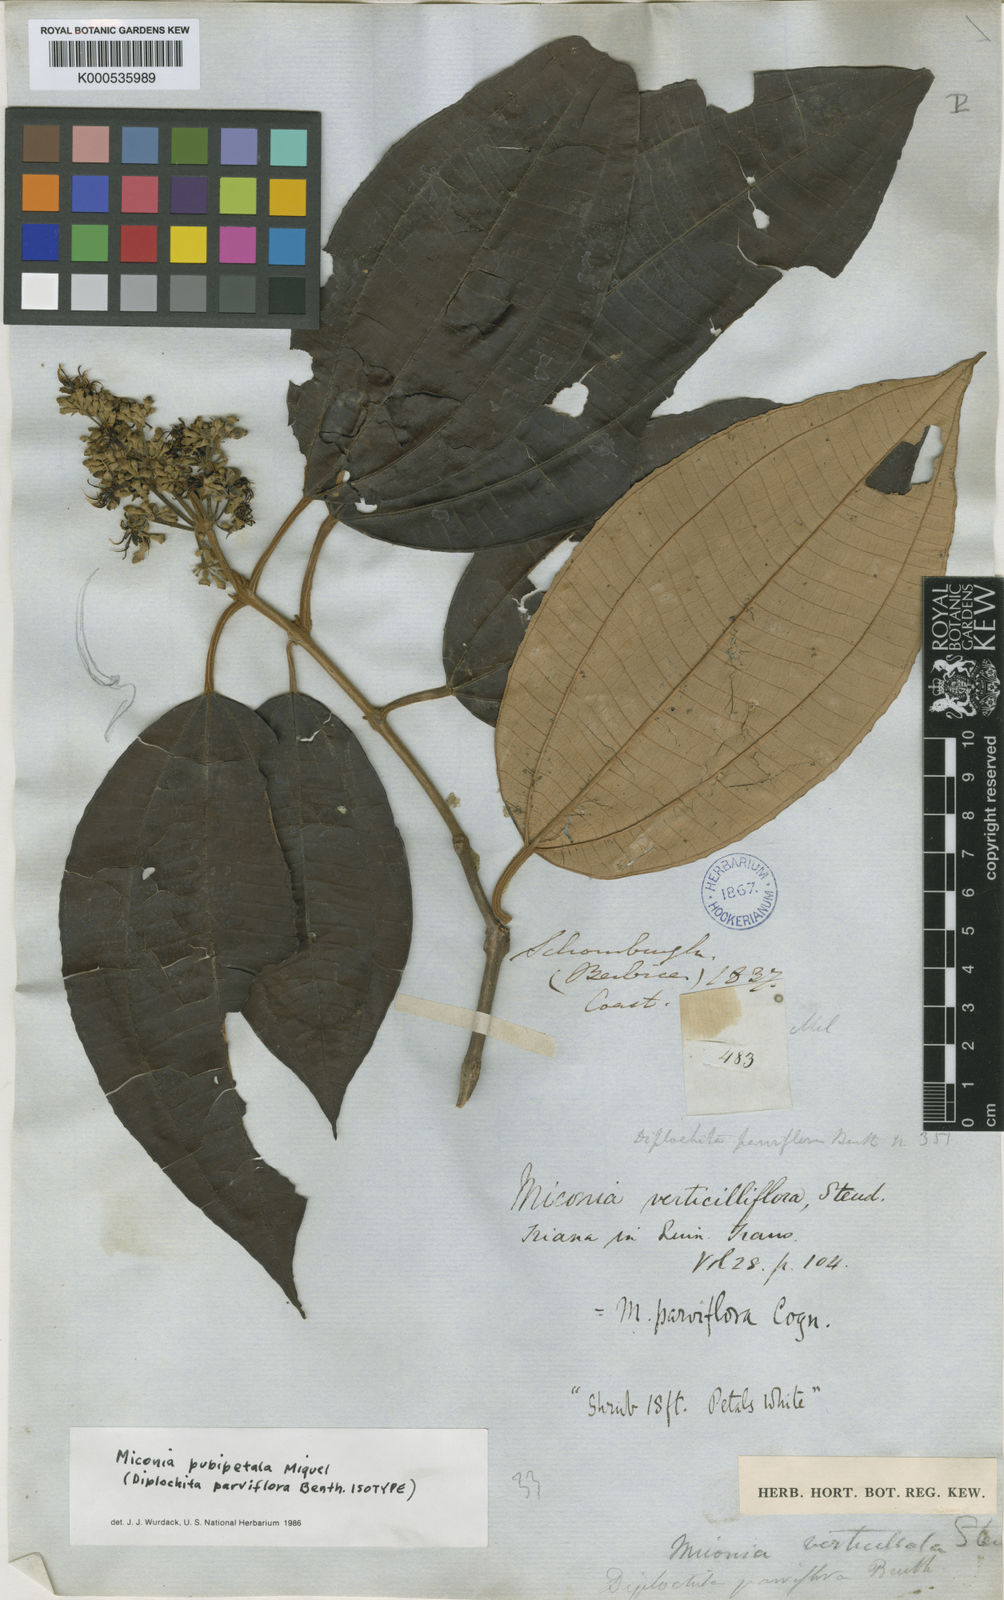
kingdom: Plantae
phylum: Tracheophyta
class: Magnoliopsida
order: Myrtales
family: Melastomataceae
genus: Miconia
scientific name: Miconia pubipetala
